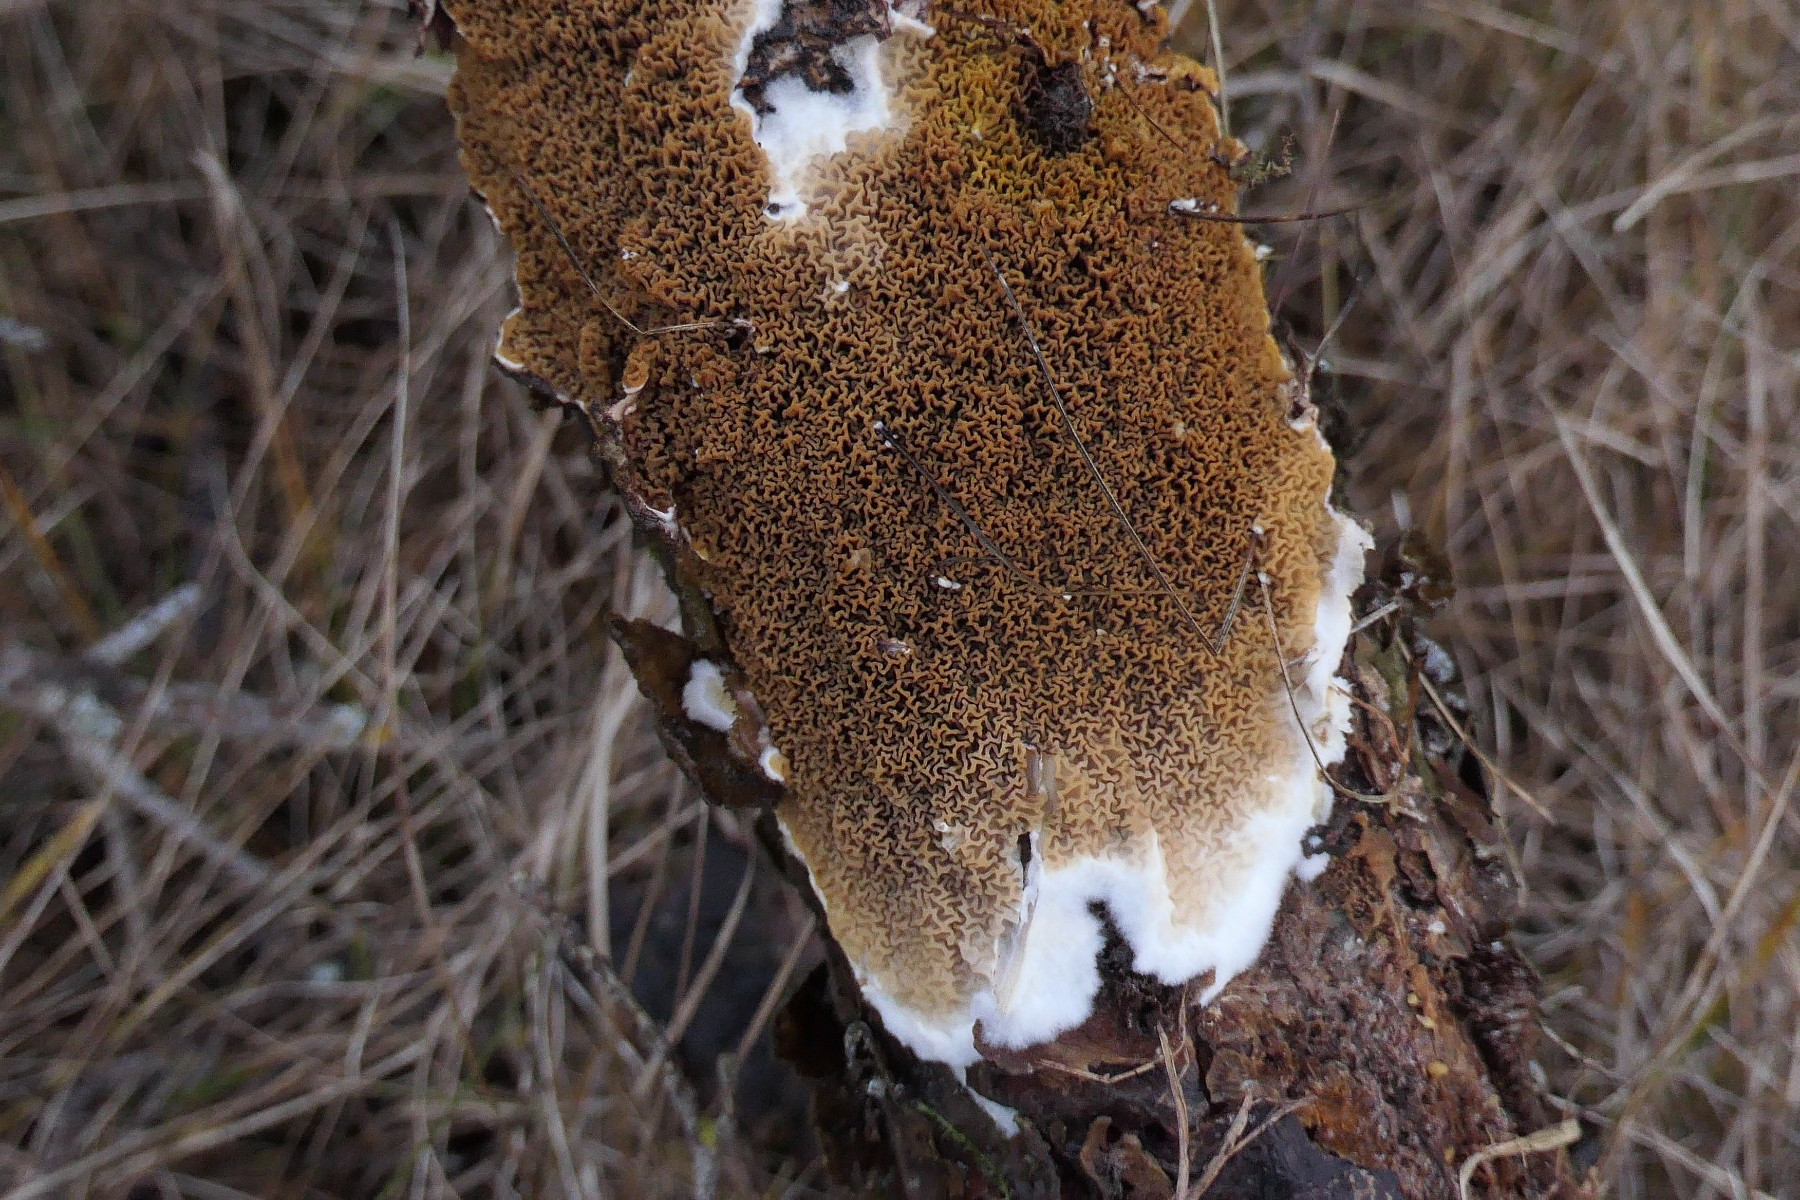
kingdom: Fungi
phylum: Basidiomycota
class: Agaricomycetes
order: Boletales
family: Serpulaceae
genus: Serpula
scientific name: Serpula himantioides
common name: tyndkødet hussvamp
